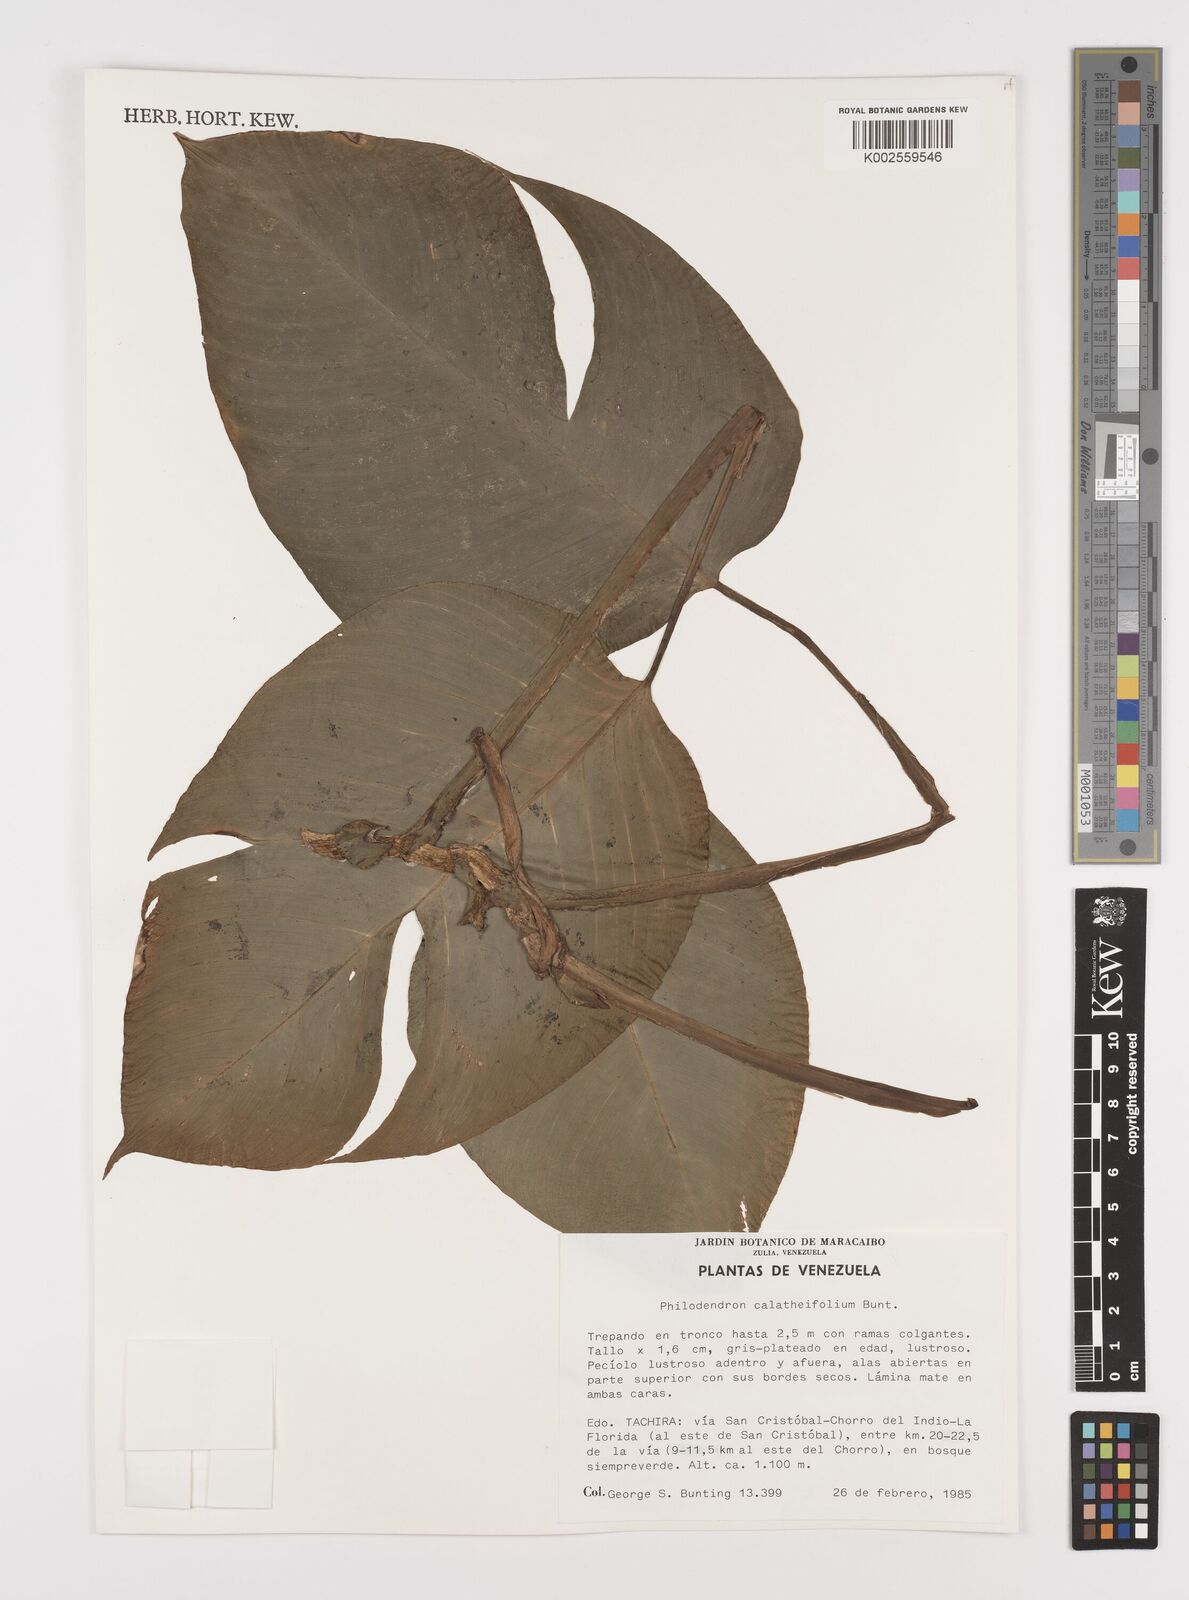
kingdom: Plantae
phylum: Tracheophyta
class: Liliopsida
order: Alismatales
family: Araceae
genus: Philodendron
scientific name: Philodendron calatheifolium
